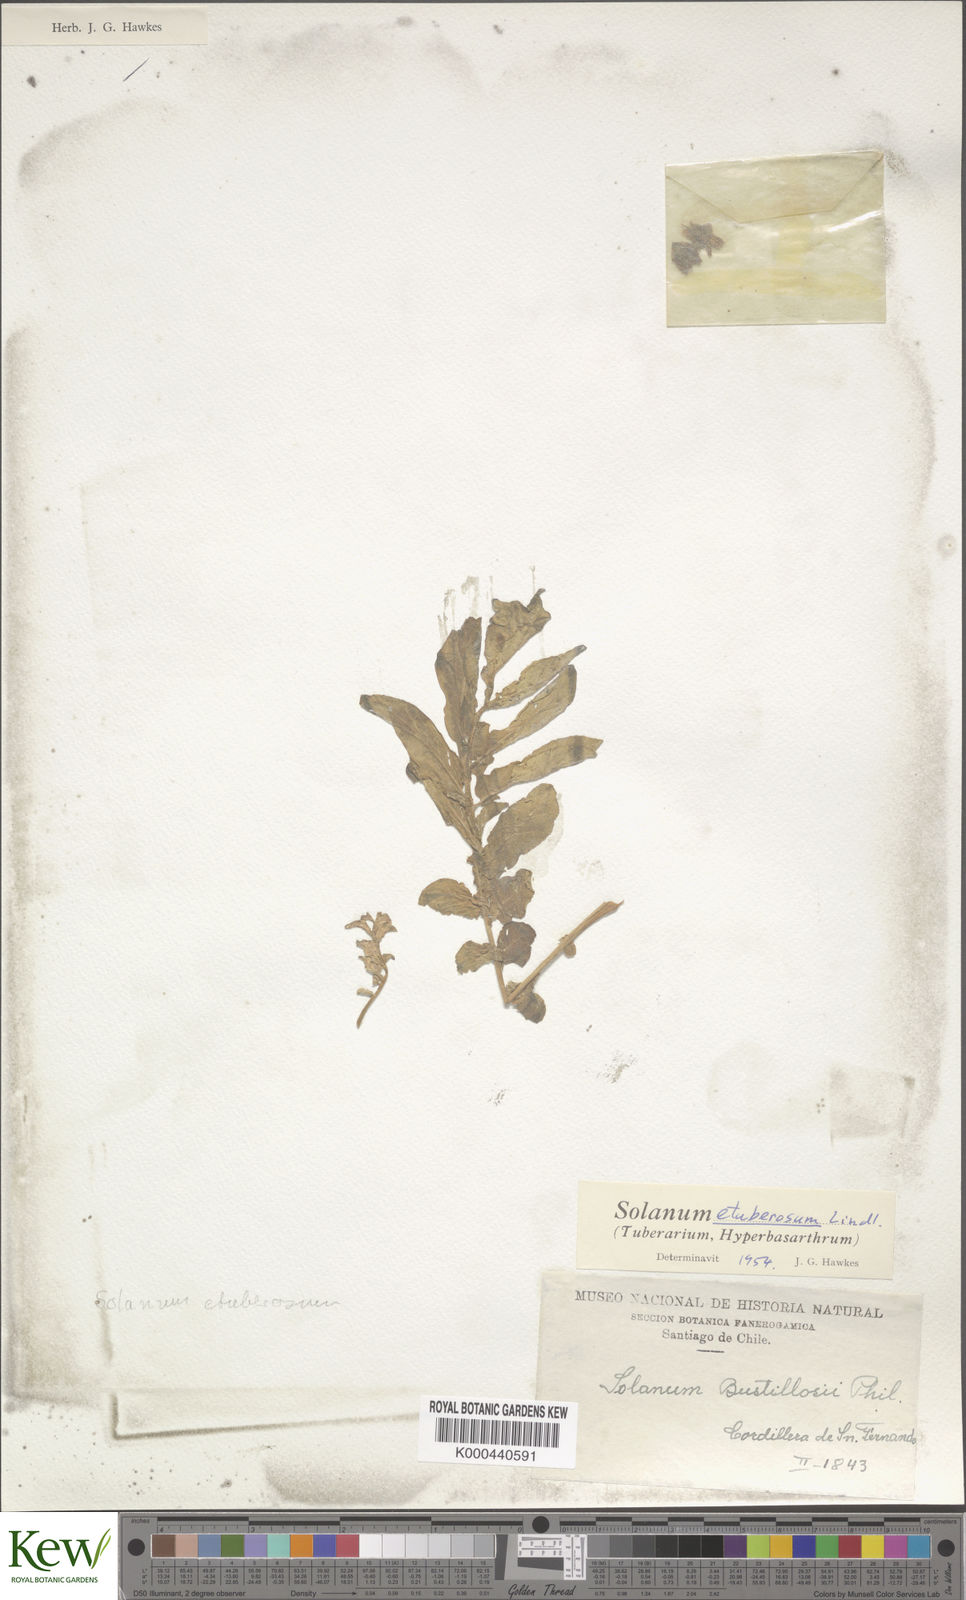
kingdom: Plantae
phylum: Tracheophyta
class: Magnoliopsida
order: Solanales
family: Solanaceae
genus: Solanum
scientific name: Solanum etuberosum
